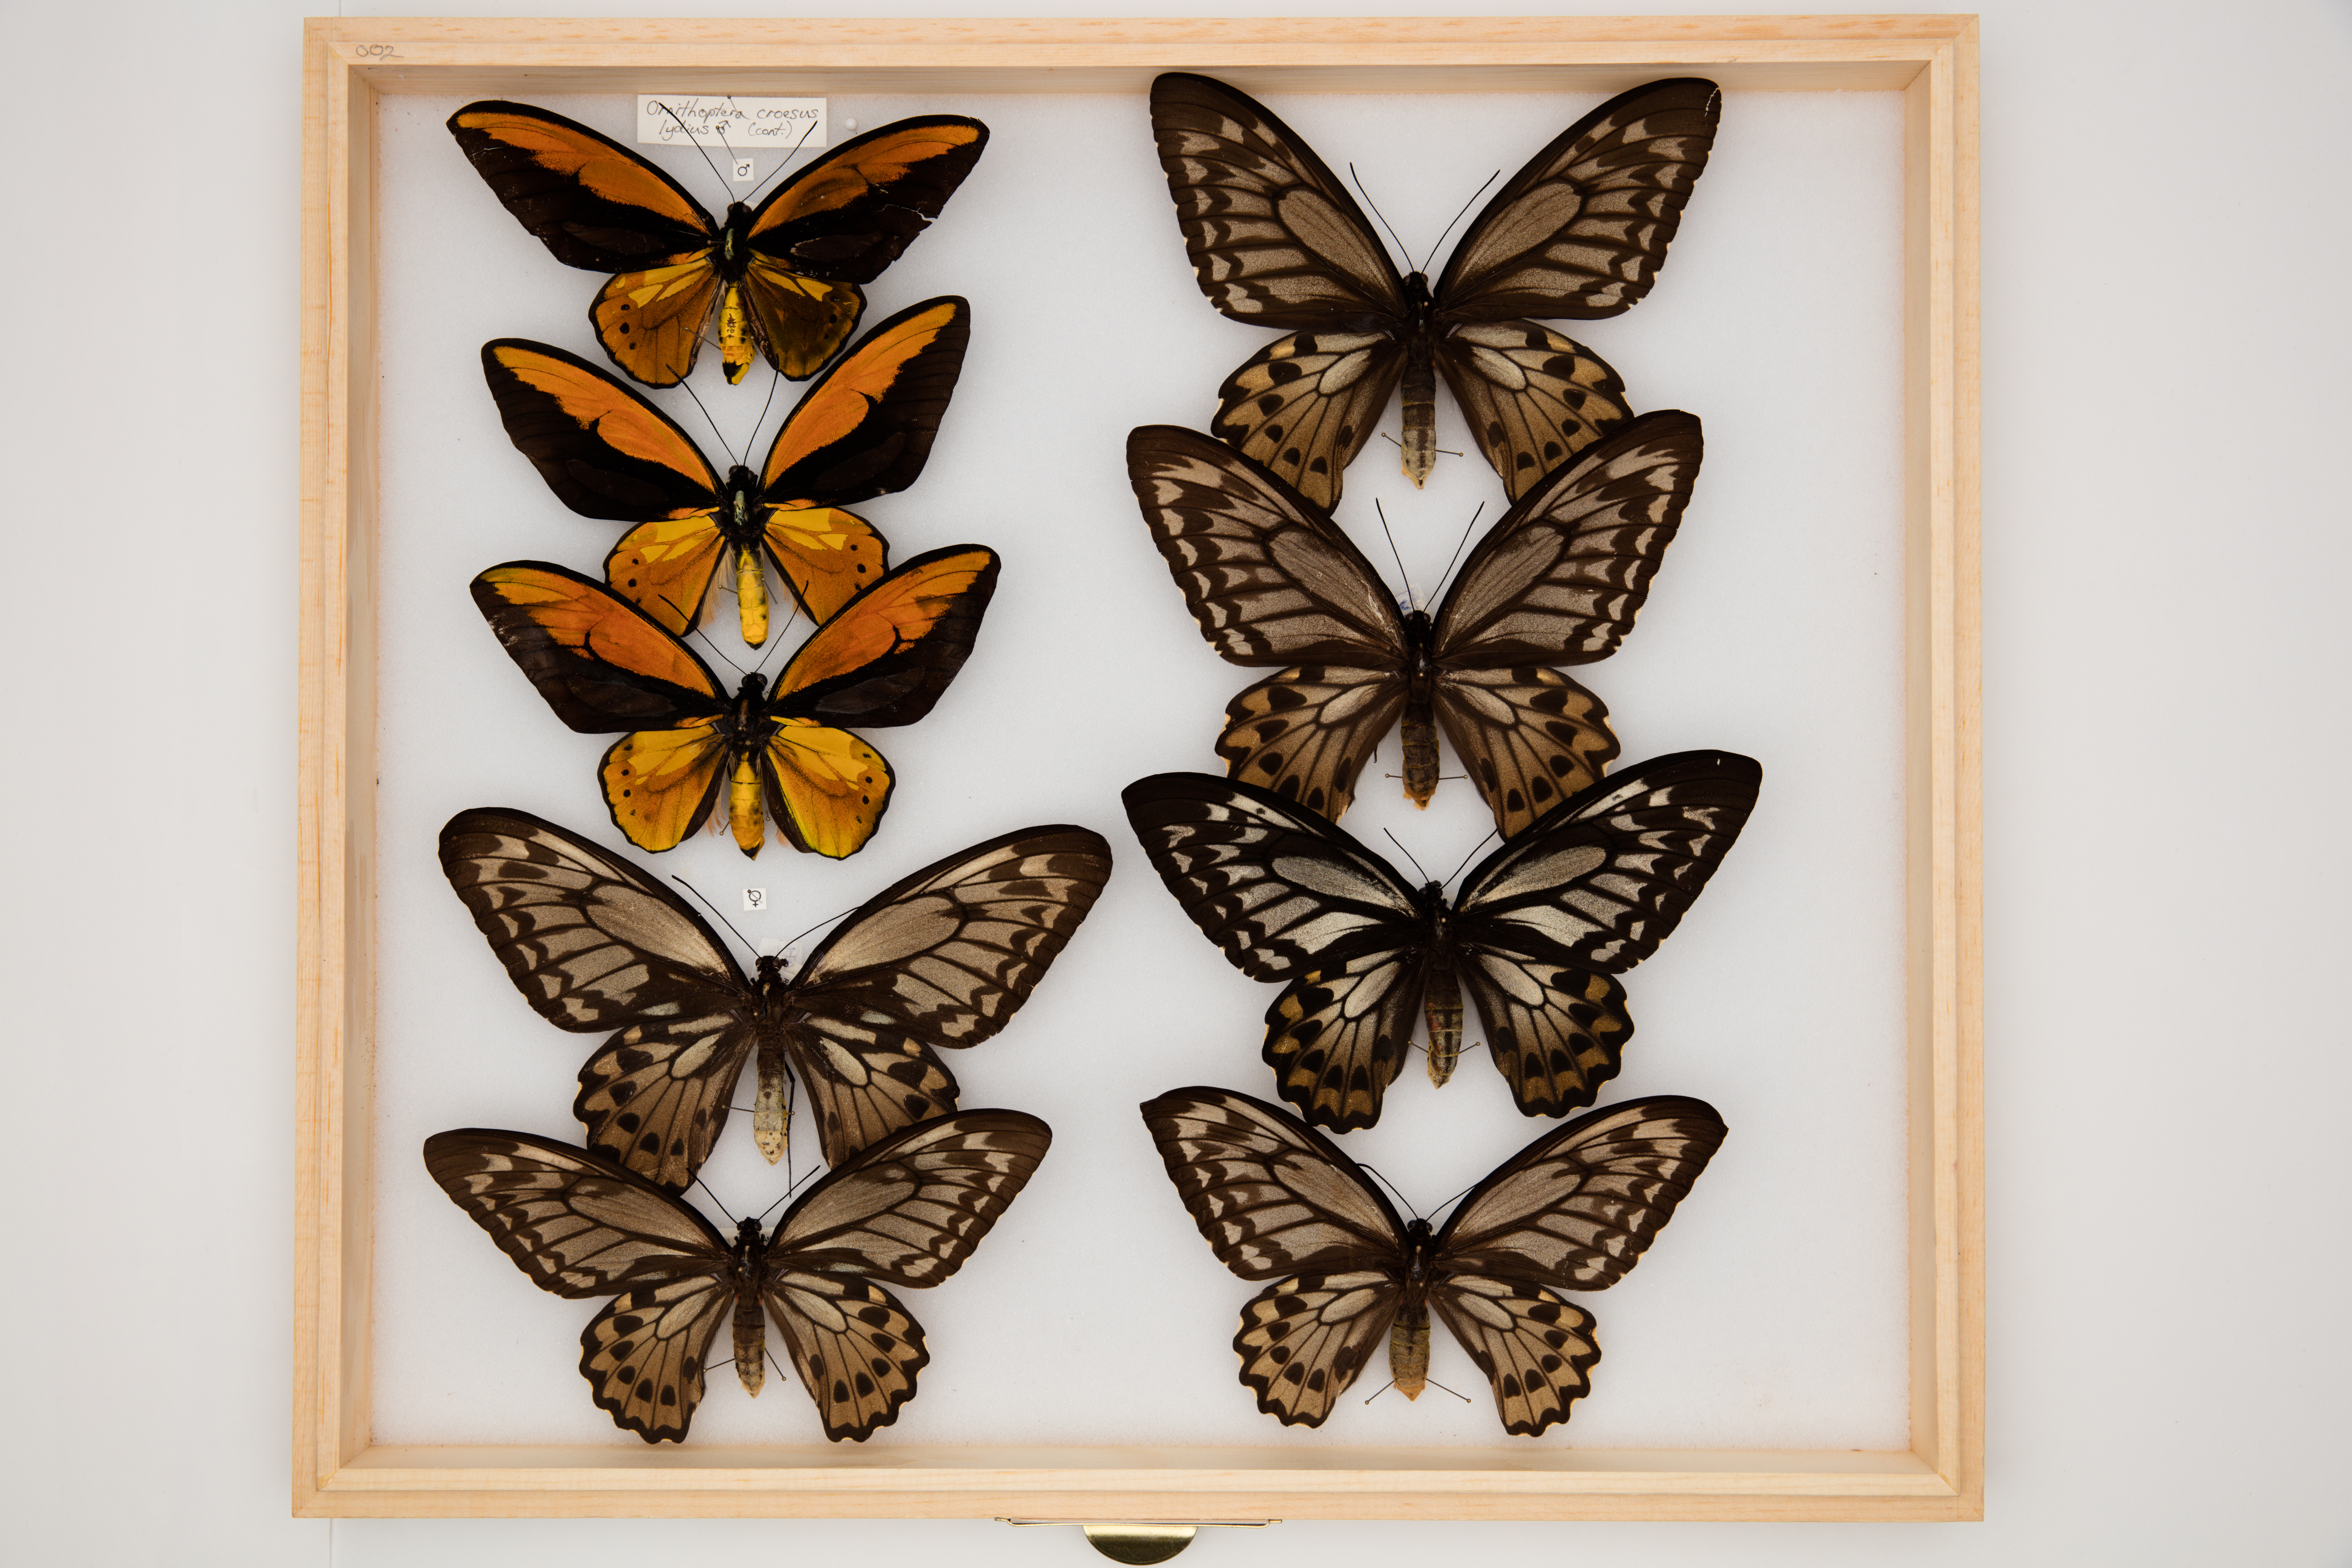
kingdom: Animalia
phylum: Arthropoda
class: Insecta
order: Lepidoptera
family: Papilionidae
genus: Ornithoptera
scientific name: Ornithoptera croesus
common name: Wallace's golden birdwing
